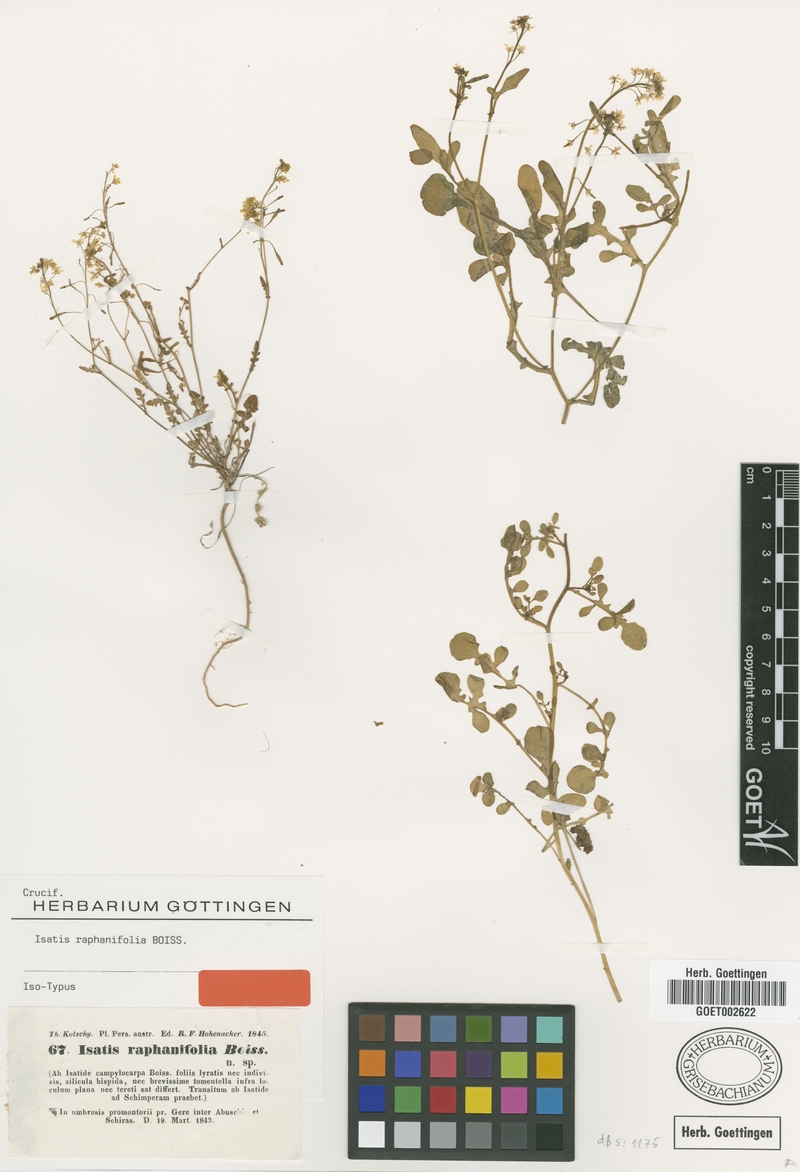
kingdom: Plantae
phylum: Tracheophyta
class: Magnoliopsida
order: Brassicales
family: Brassicaceae
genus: Isatis
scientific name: Isatis raphanifolia
